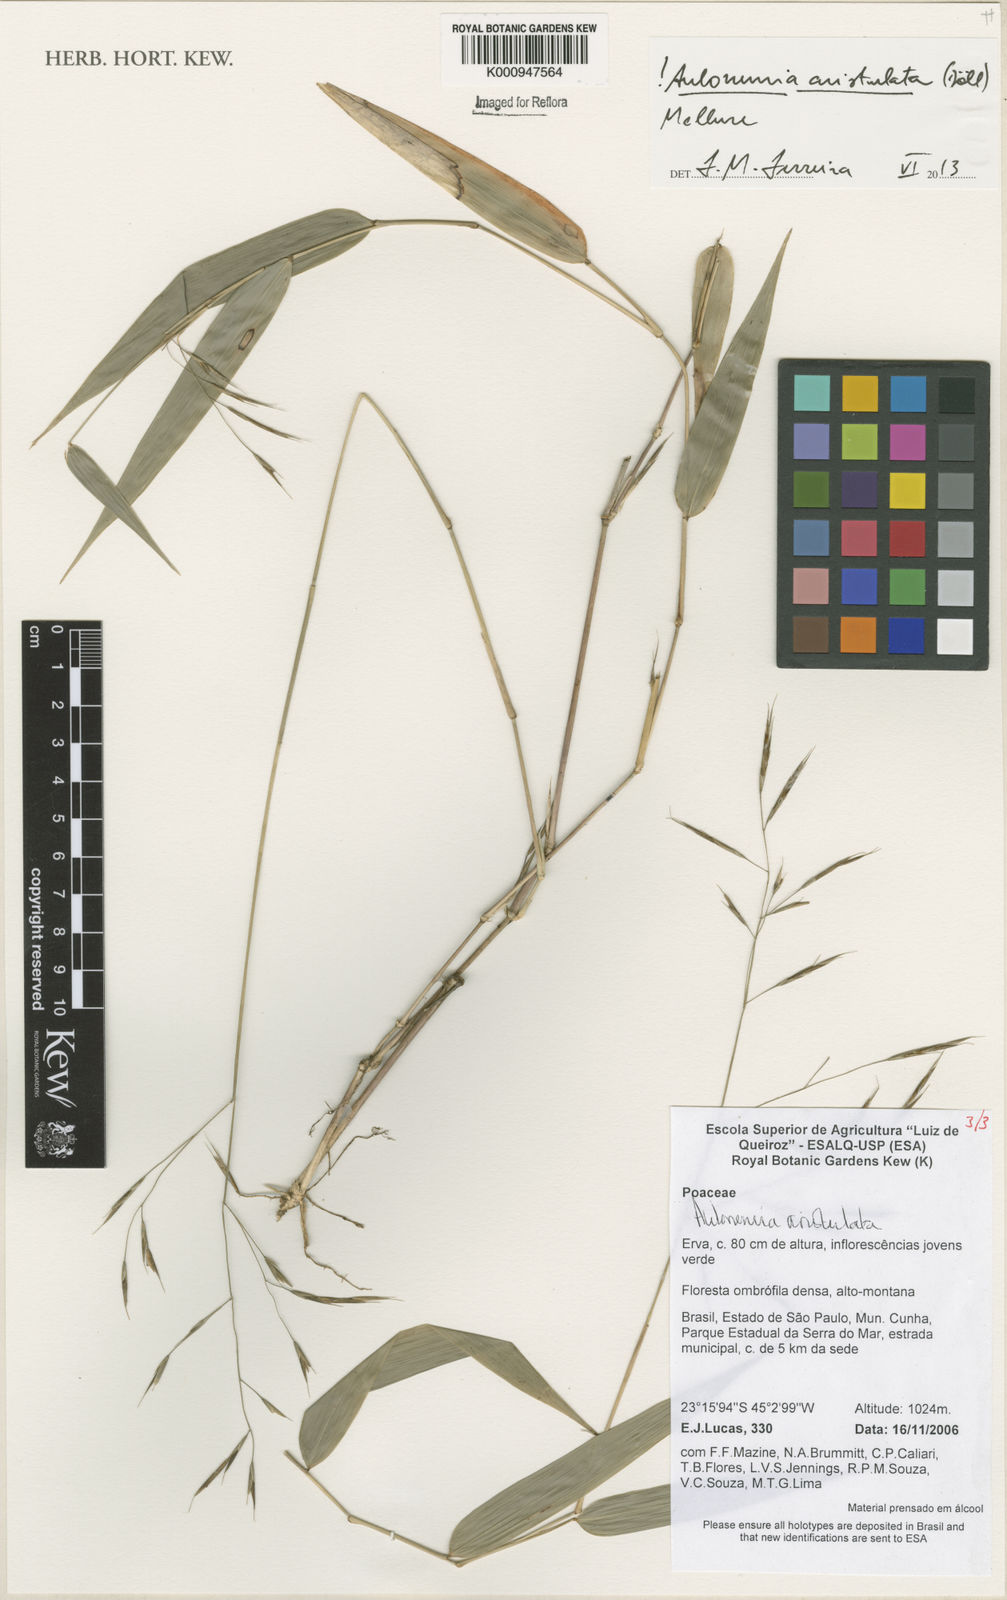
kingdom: Plantae
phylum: Tracheophyta
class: Liliopsida
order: Poales
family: Poaceae
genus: Aulonemia
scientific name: Aulonemia
